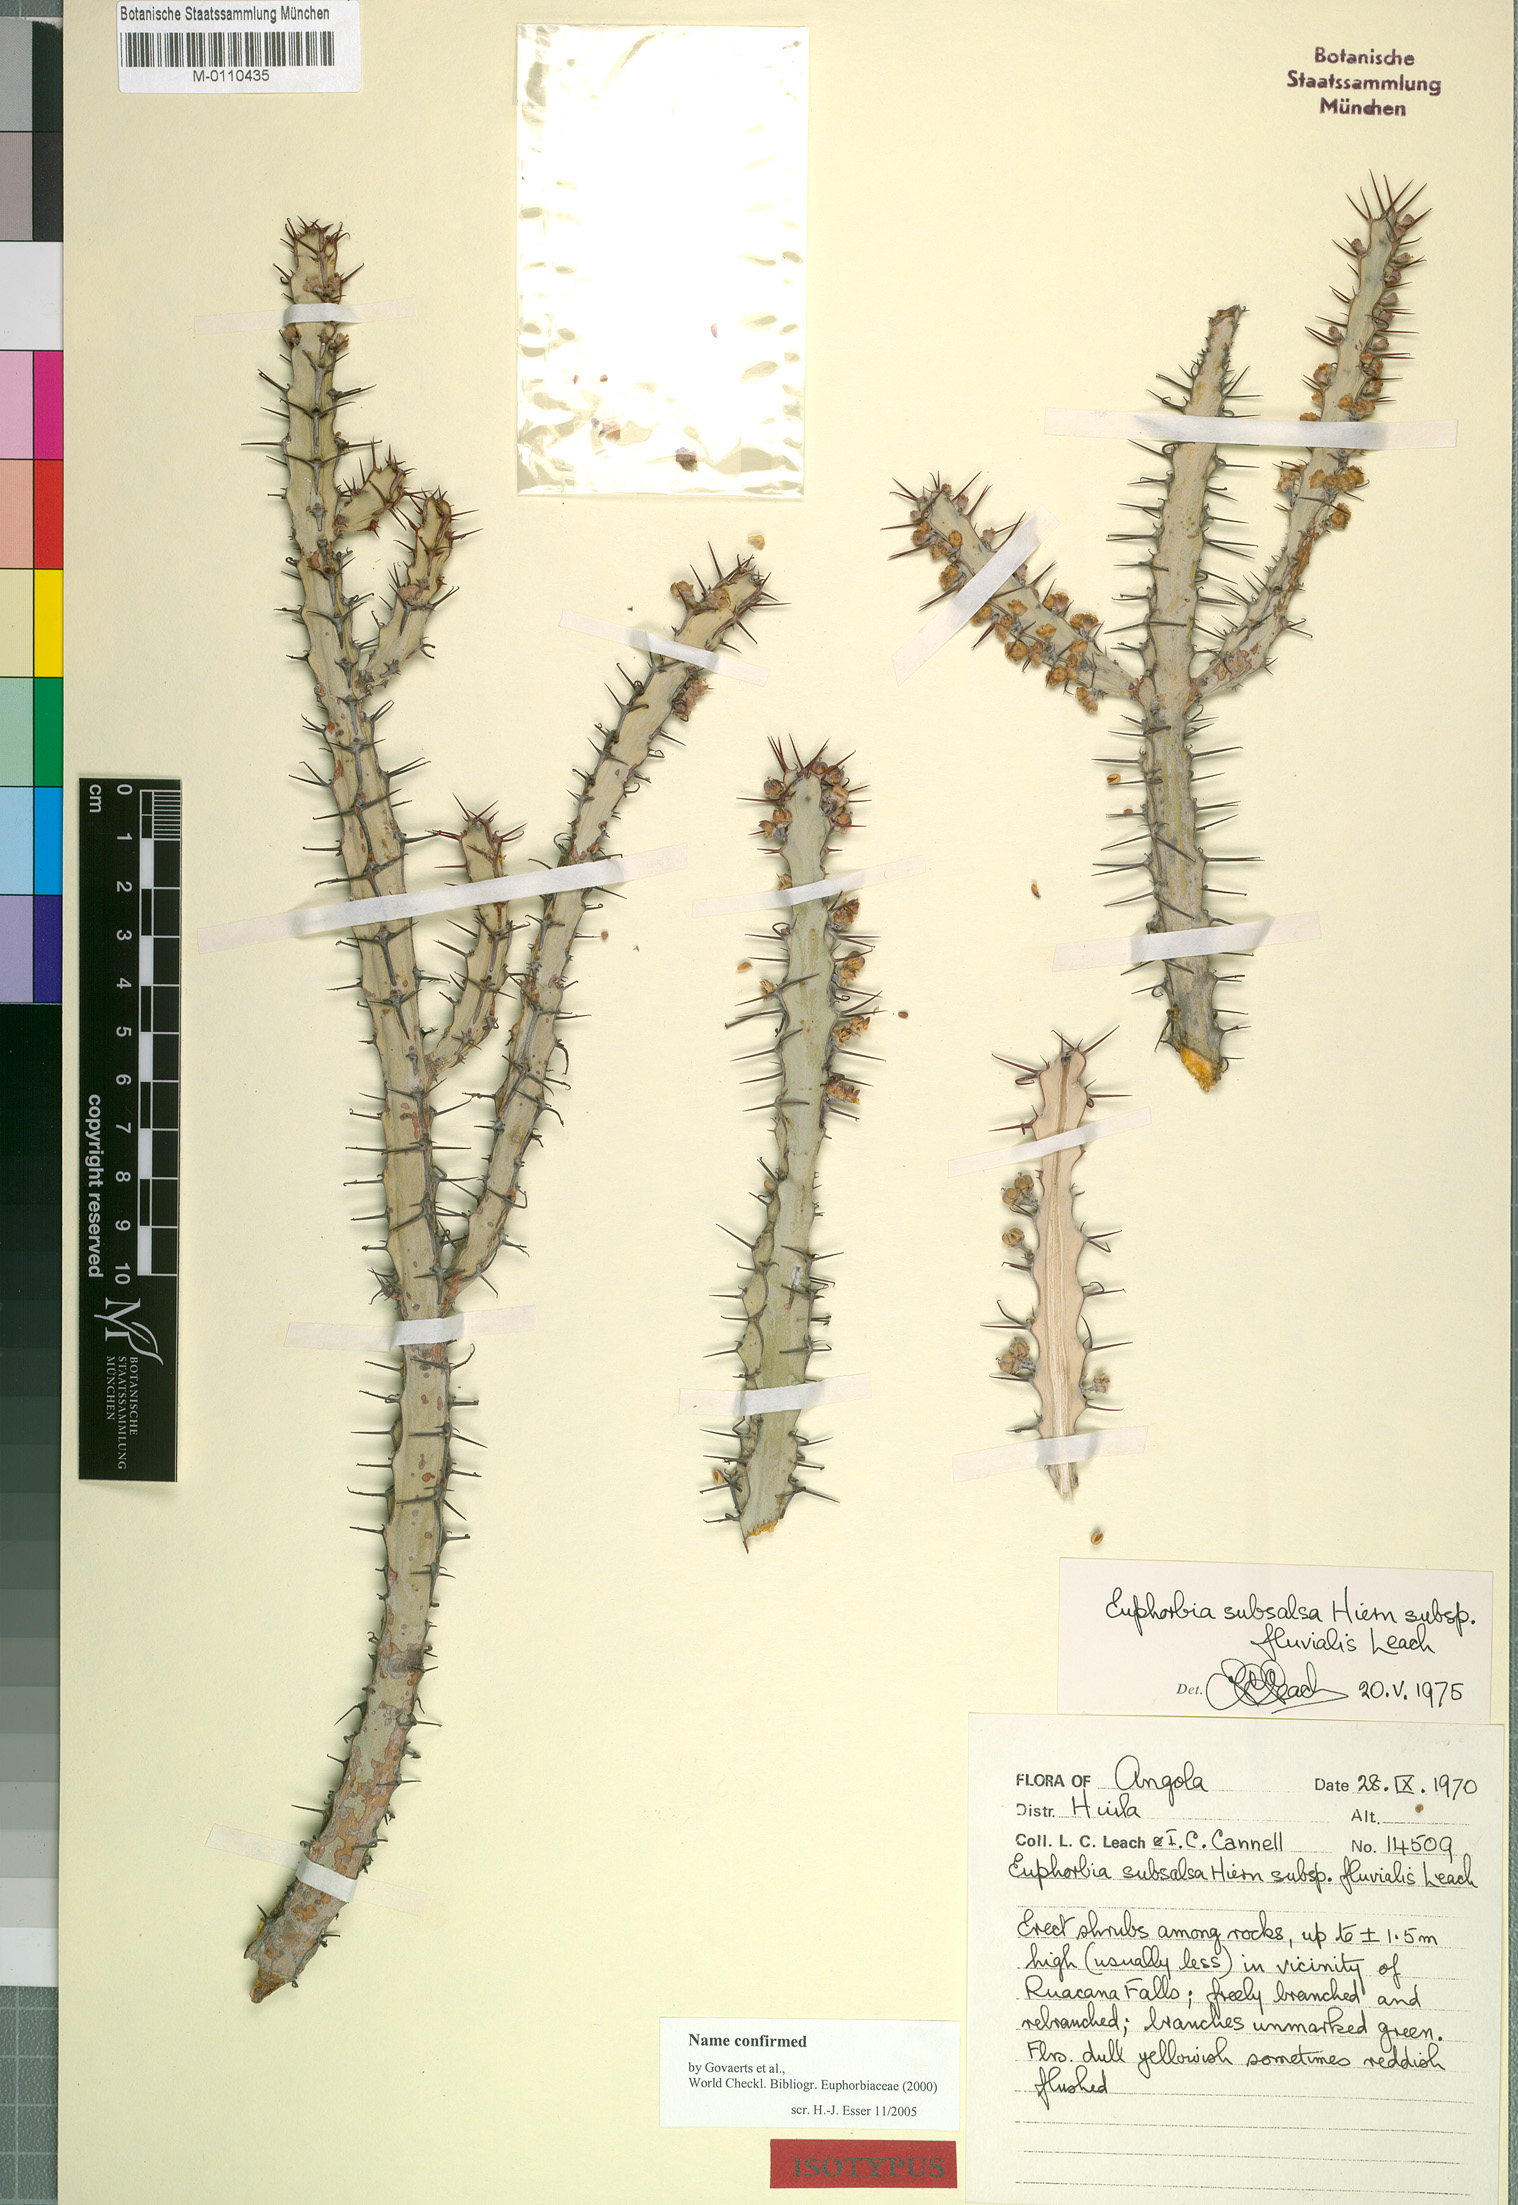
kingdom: Plantae
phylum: Tracheophyta
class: Magnoliopsida
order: Malpighiales
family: Euphorbiaceae
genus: Euphorbia
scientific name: Euphorbia otjipembana
